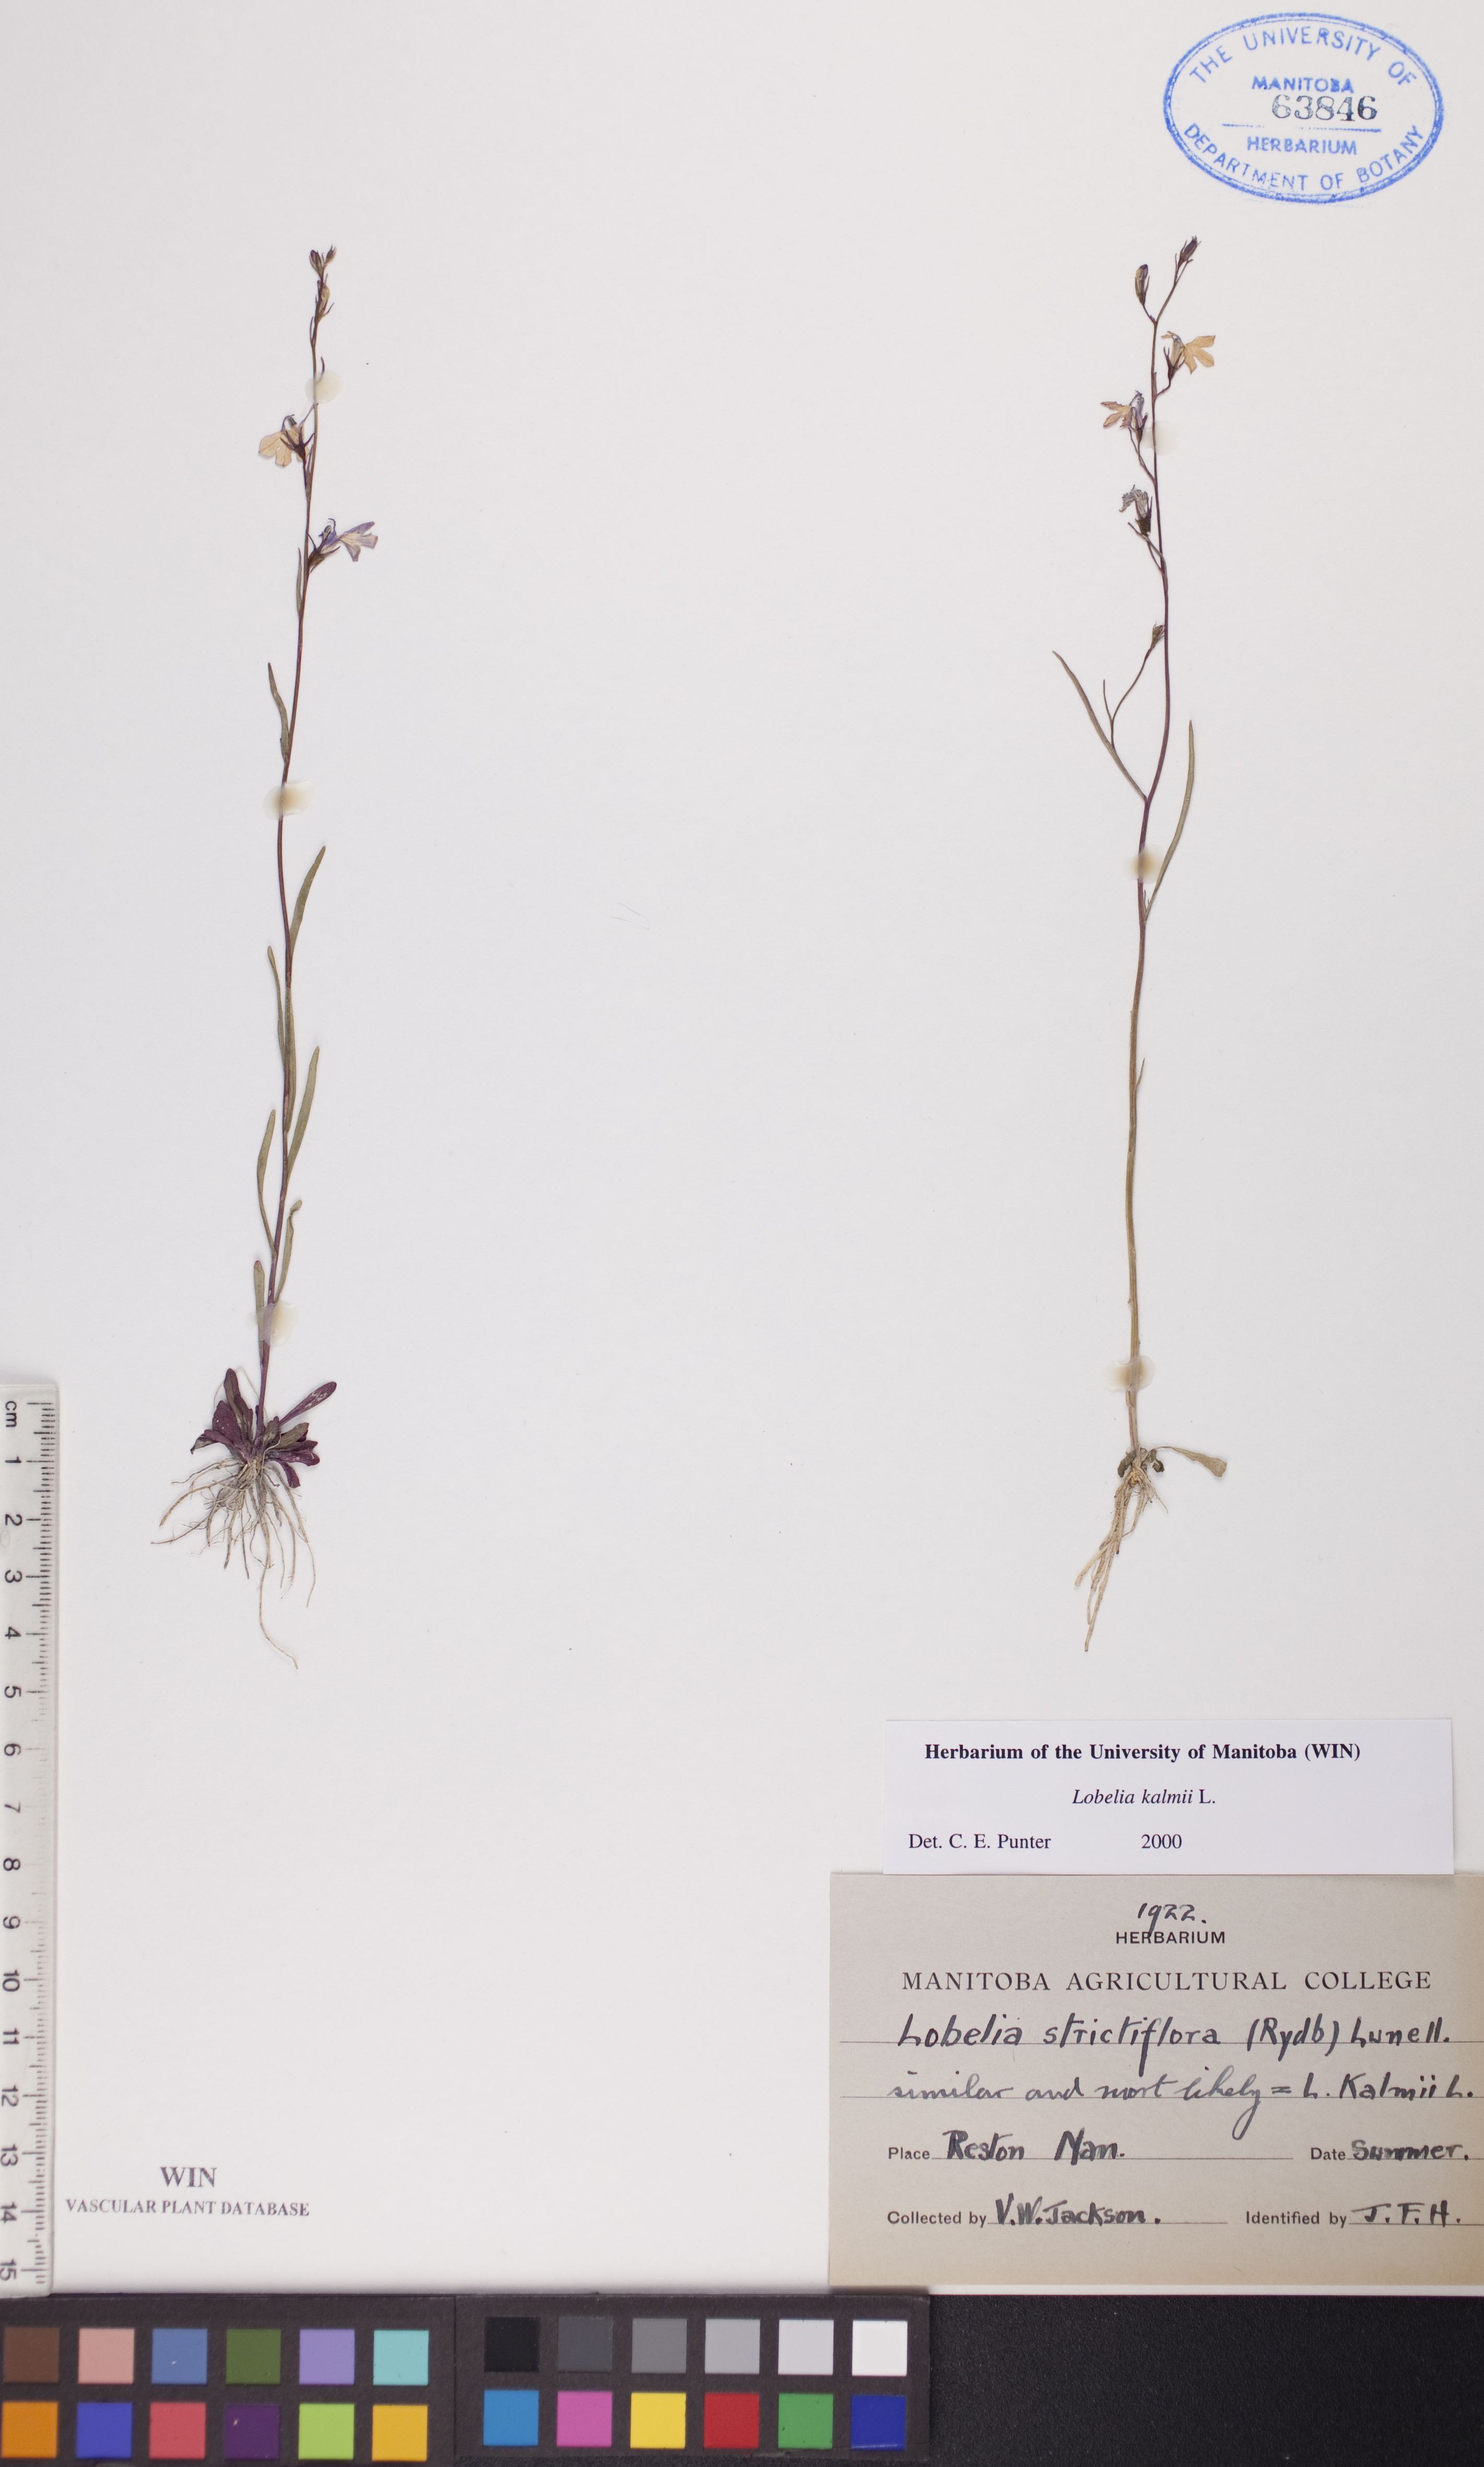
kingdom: Plantae
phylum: Tracheophyta
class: Magnoliopsida
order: Asterales
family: Campanulaceae
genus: Lobelia
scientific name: Lobelia kalmii
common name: Kalm's lobelia
